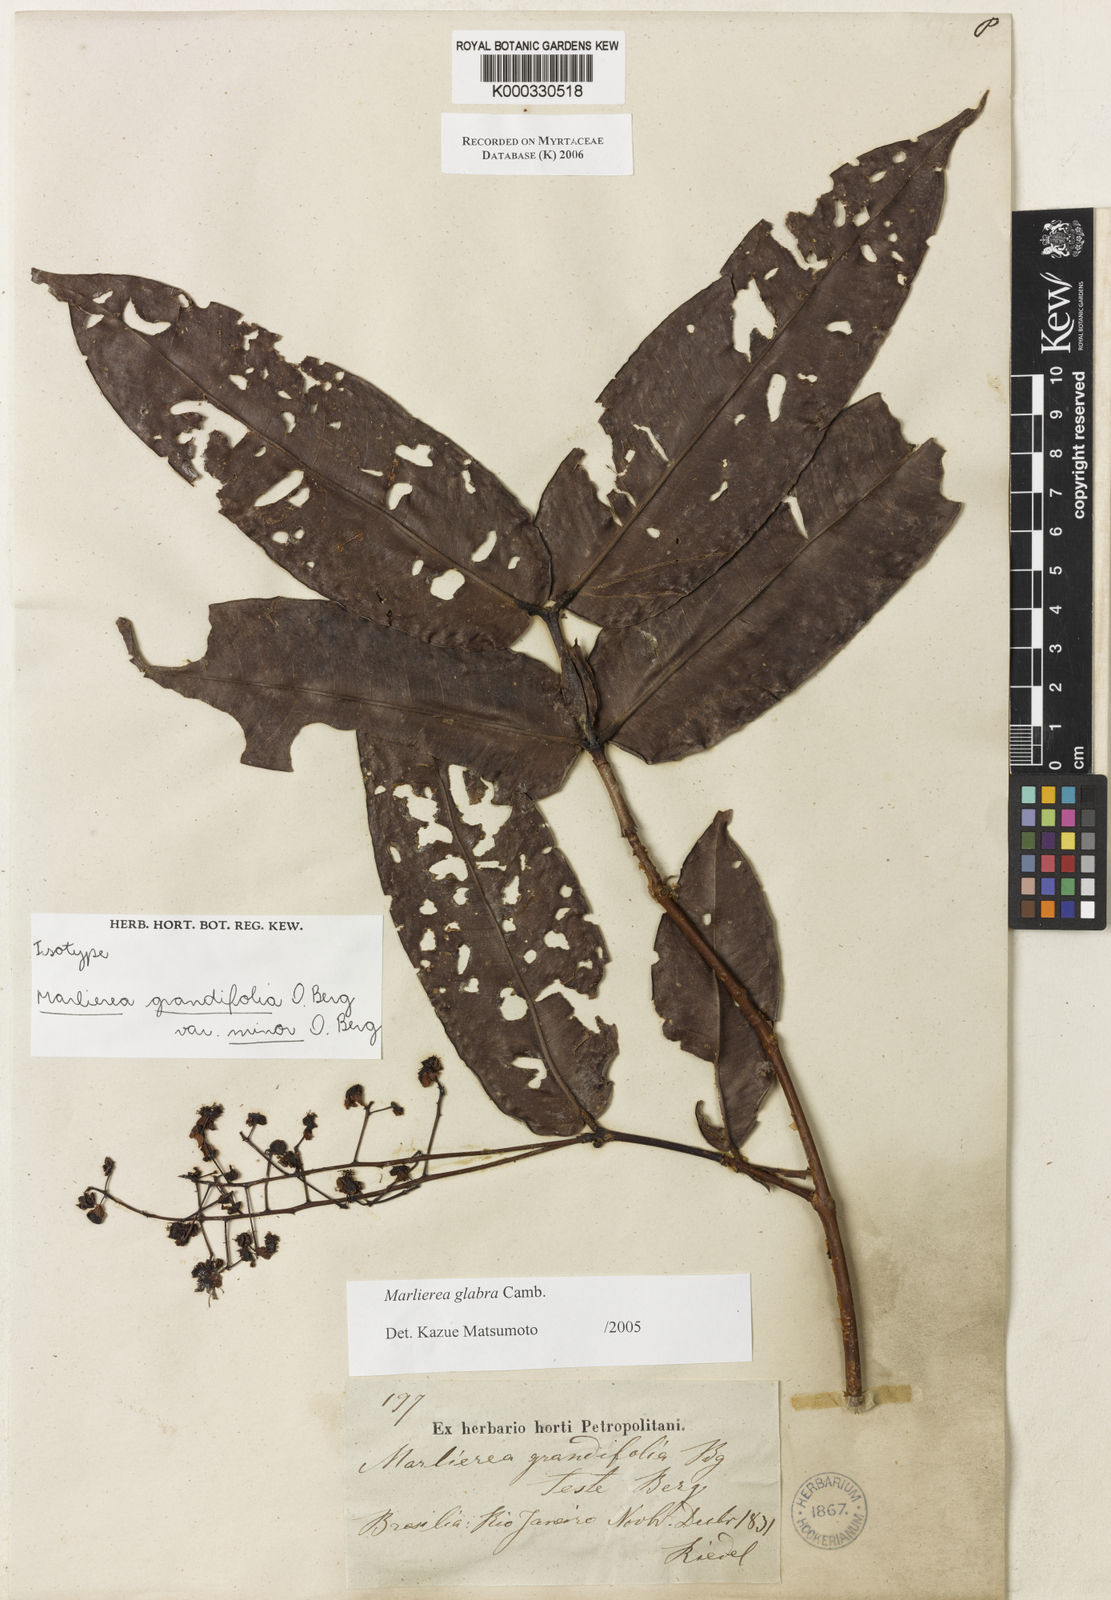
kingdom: Plantae
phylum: Tracheophyta
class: Magnoliopsida
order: Myrtales
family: Myrtaceae
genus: Myrcia
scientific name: Myrcia neoglabra
